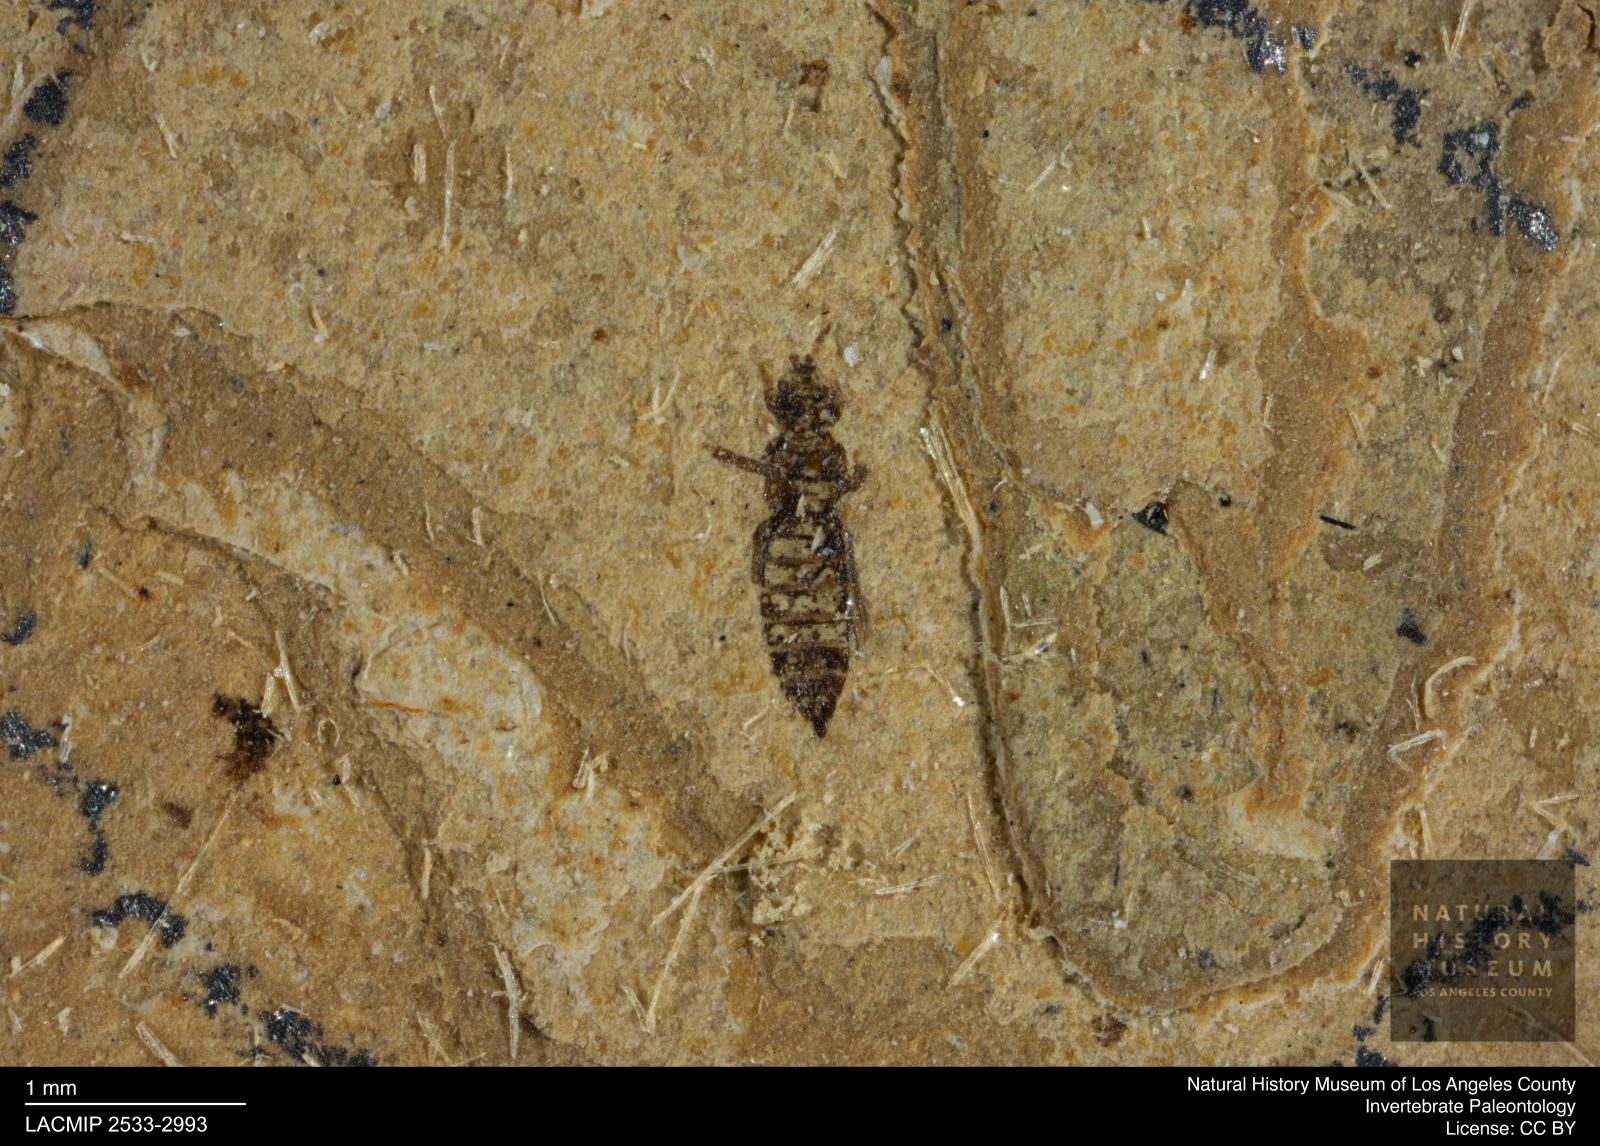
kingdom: Animalia
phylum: Arthropoda
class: Insecta
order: Thysanoptera
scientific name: Thysanoptera
